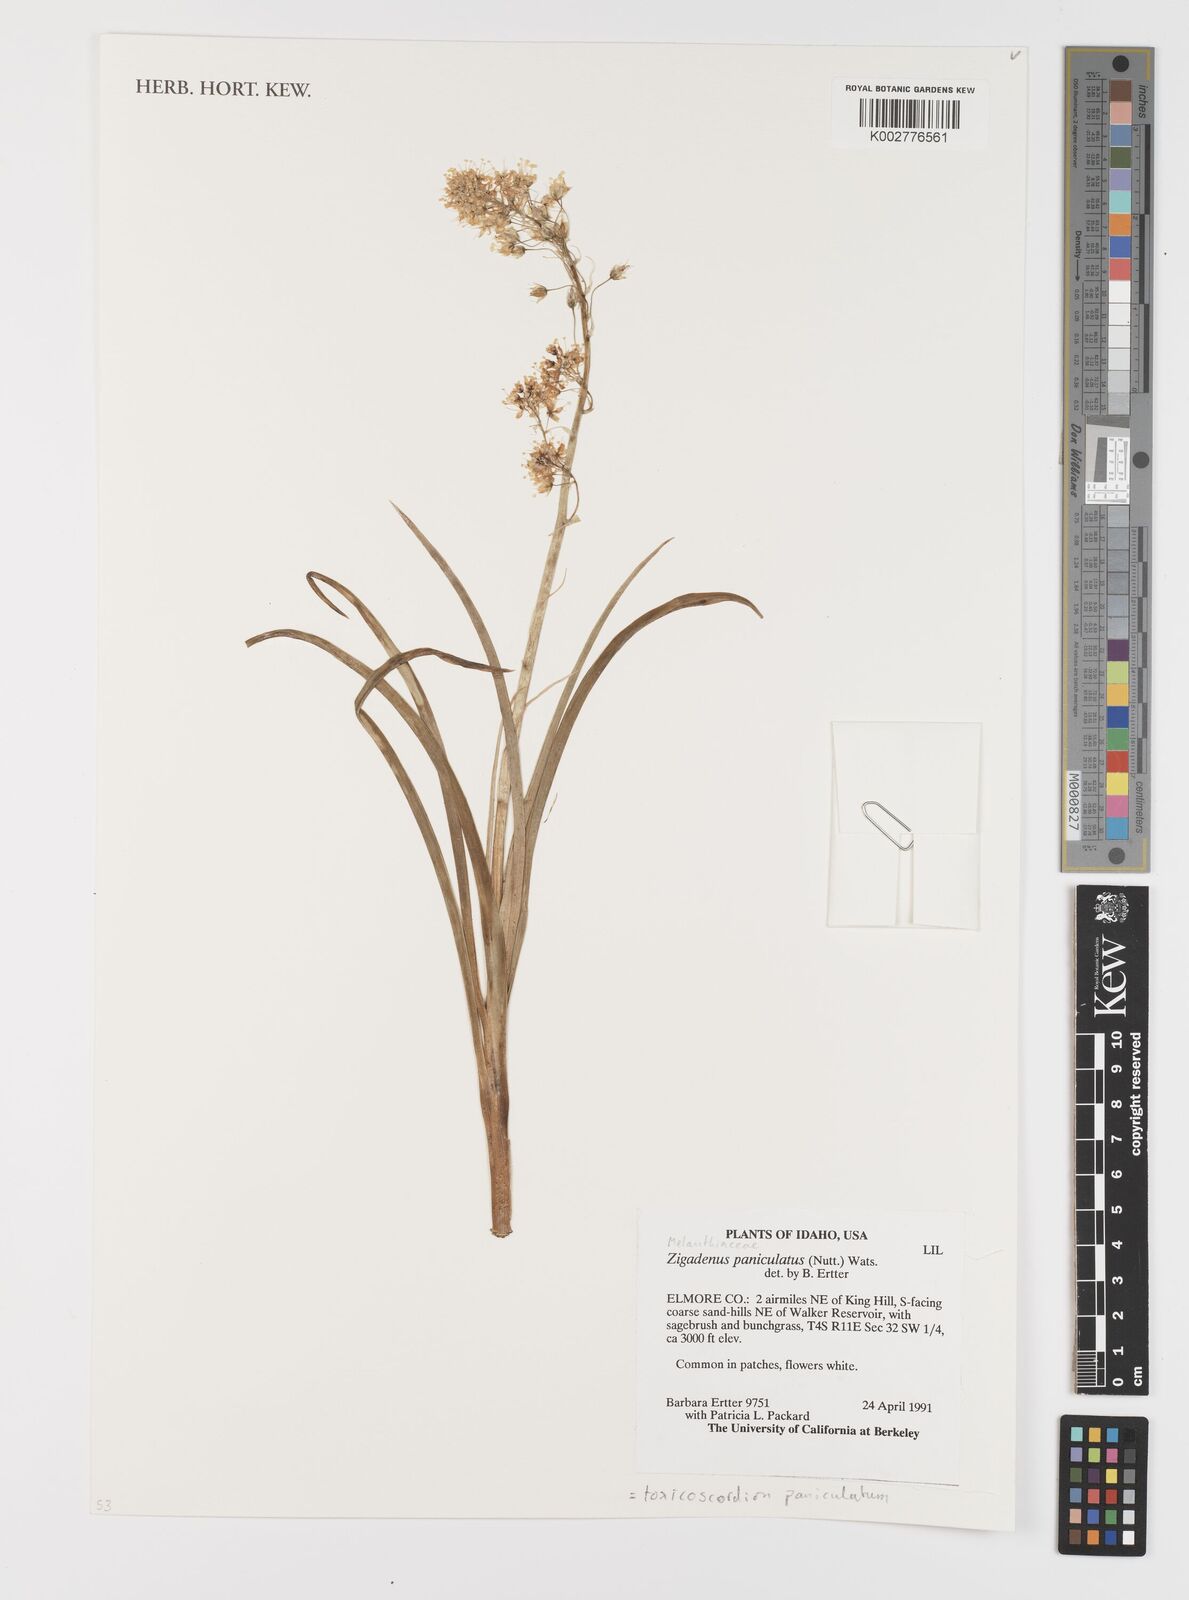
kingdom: Plantae
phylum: Tracheophyta
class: Liliopsida
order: Liliales
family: Melanthiaceae
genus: Toxicoscordion
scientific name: Toxicoscordion paniculatum
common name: Foothill death camas
